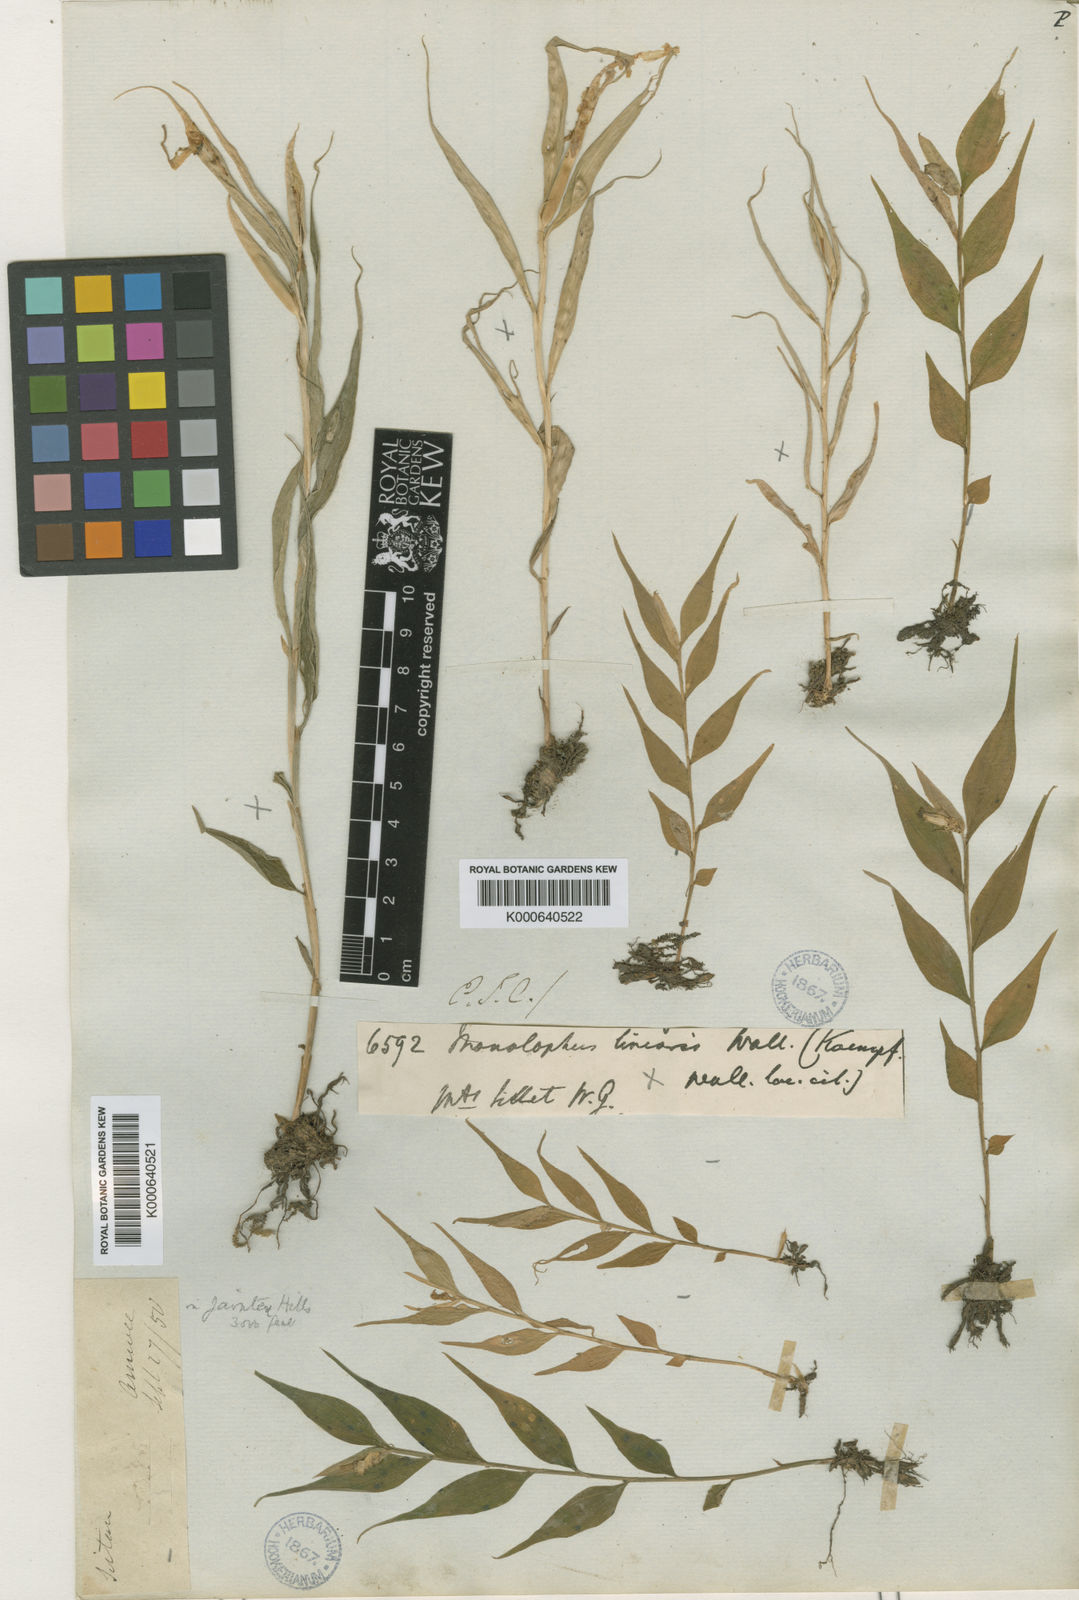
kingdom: Plantae
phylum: Tracheophyta
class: Liliopsida
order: Zingiberales
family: Zingiberaceae
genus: Caulokaempferia
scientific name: Caulokaempferia linearis
